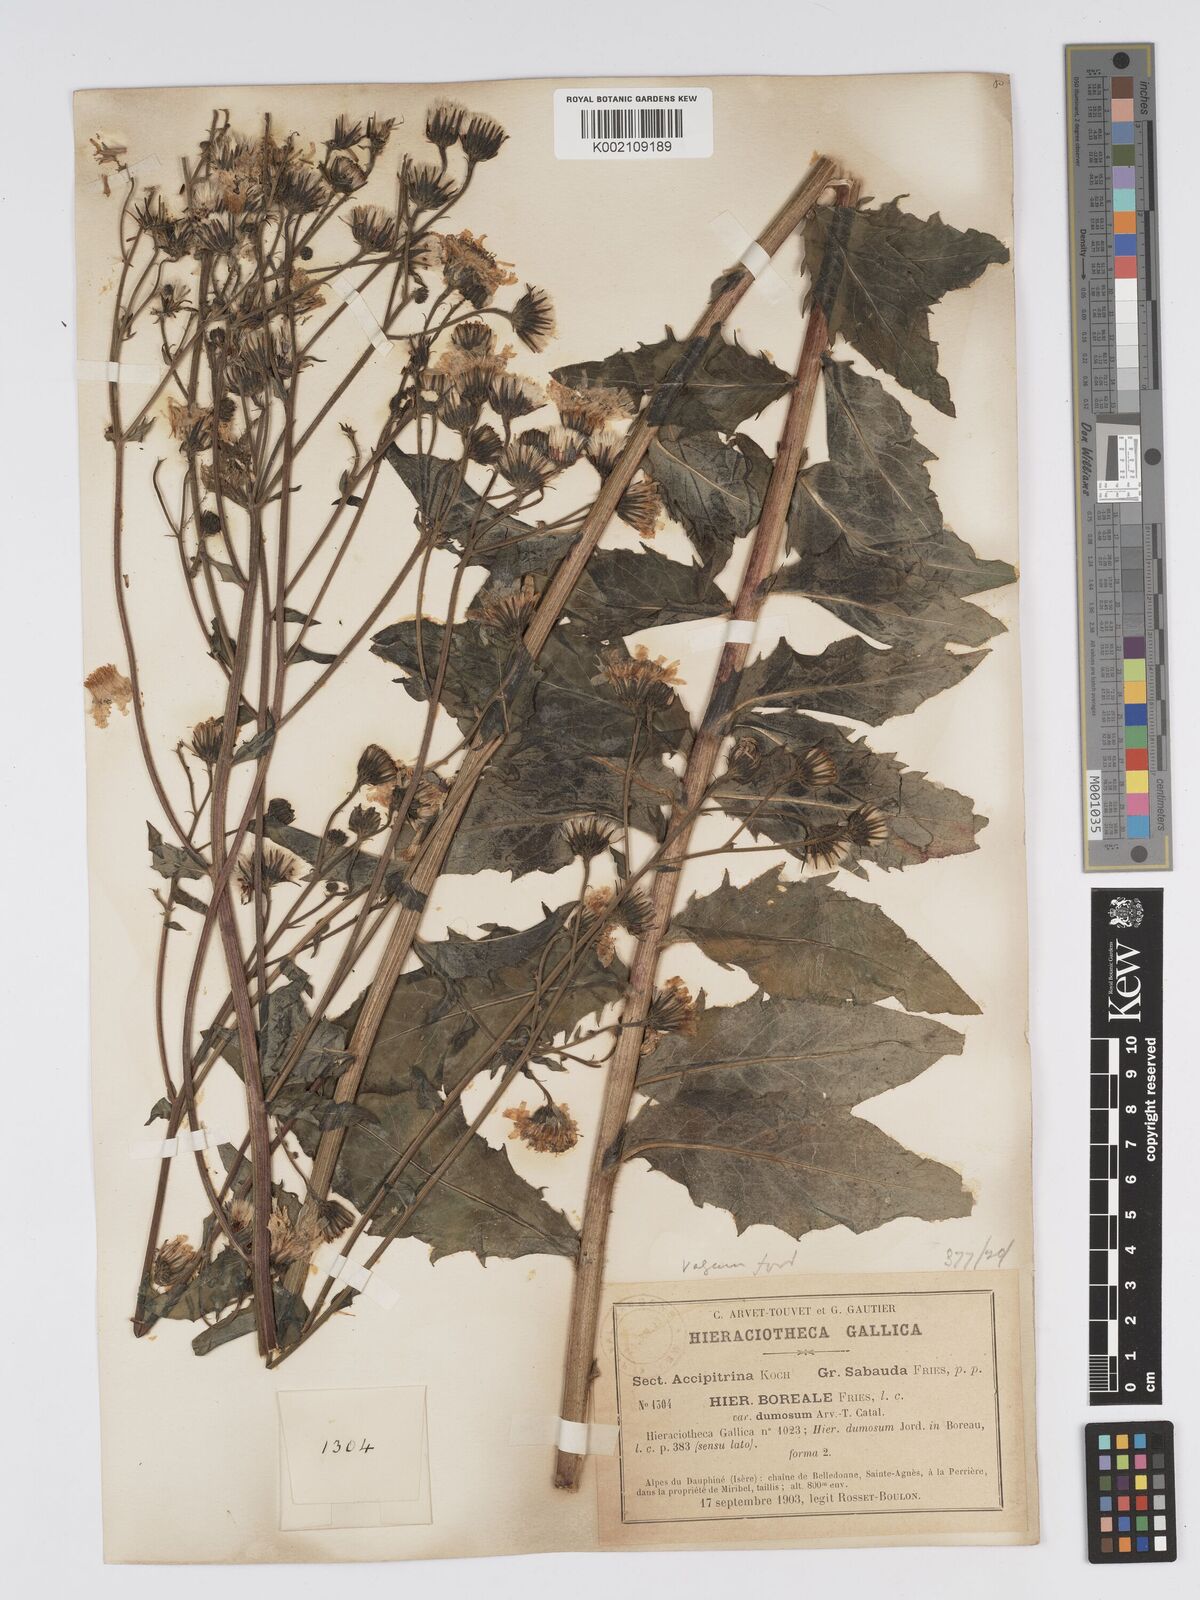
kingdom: Plantae
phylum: Tracheophyta
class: Magnoliopsida
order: Asterales
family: Asteraceae
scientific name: Asteraceae
